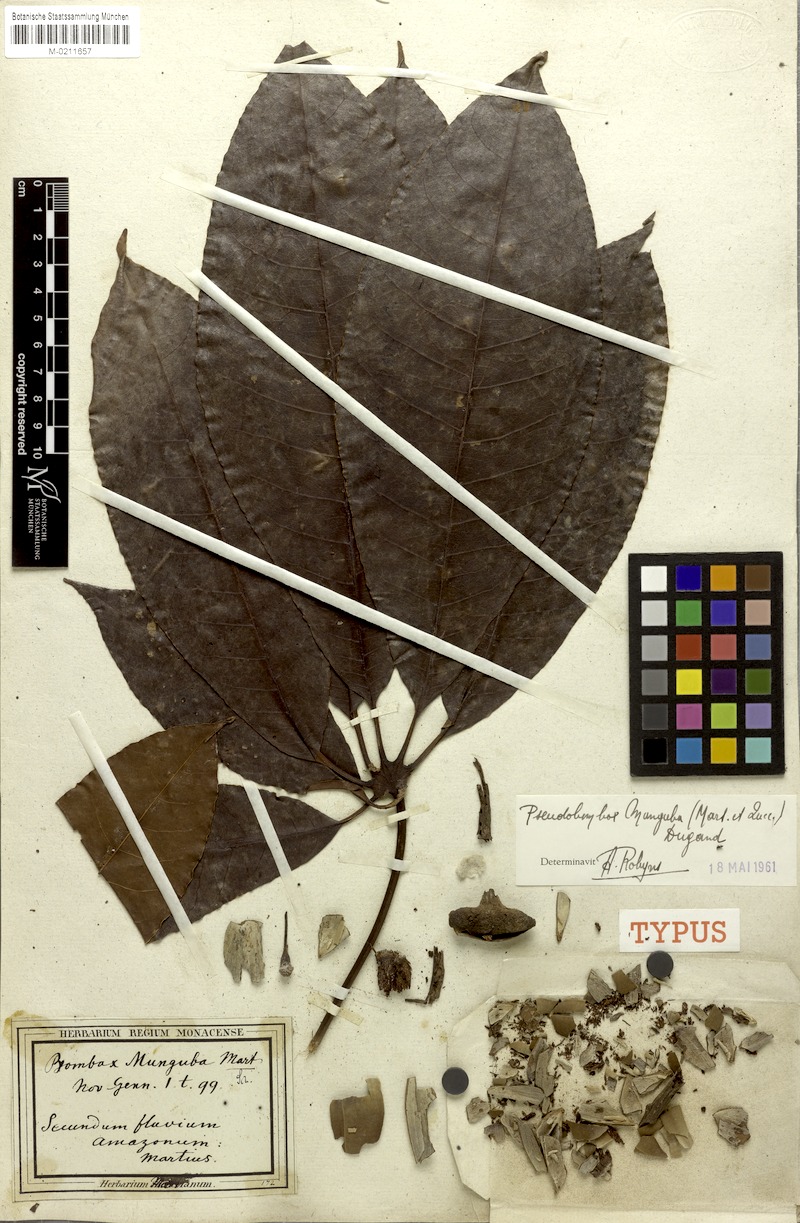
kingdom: Plantae
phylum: Tracheophyta
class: Magnoliopsida
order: Malvales
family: Malvaceae
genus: Pseudobombax
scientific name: Pseudobombax munguba
